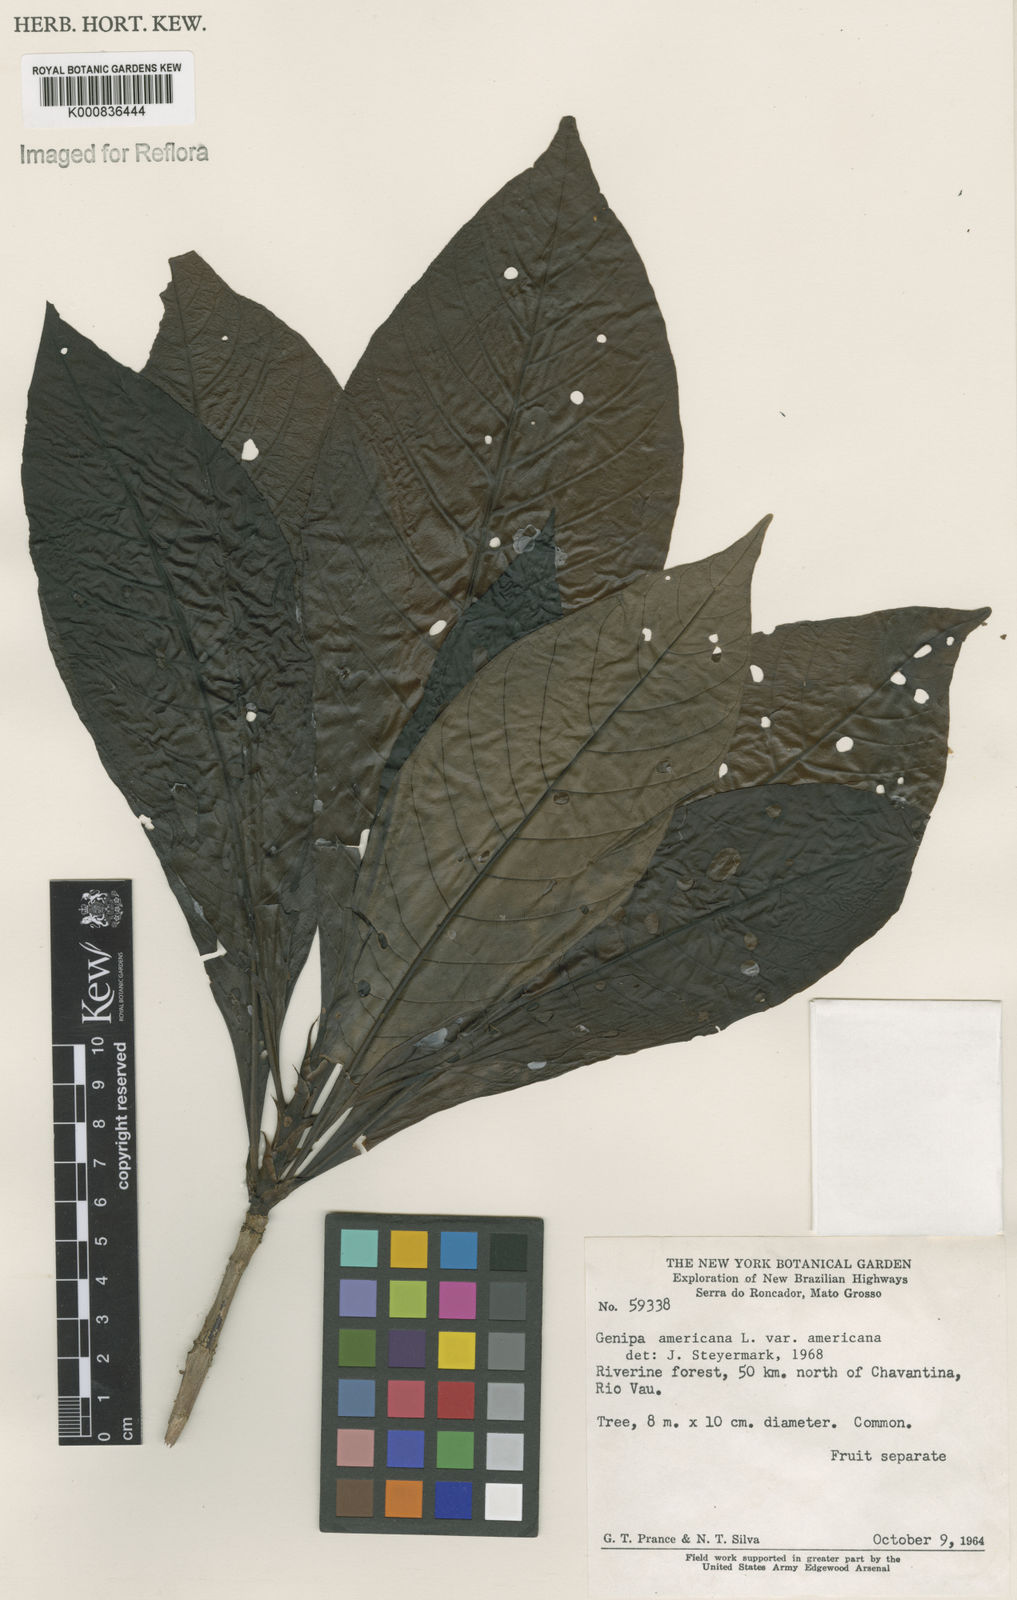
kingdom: Plantae
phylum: Tracheophyta
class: Magnoliopsida
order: Gentianales
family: Rubiaceae
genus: Genipa
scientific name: Genipa americana
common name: Genipap
